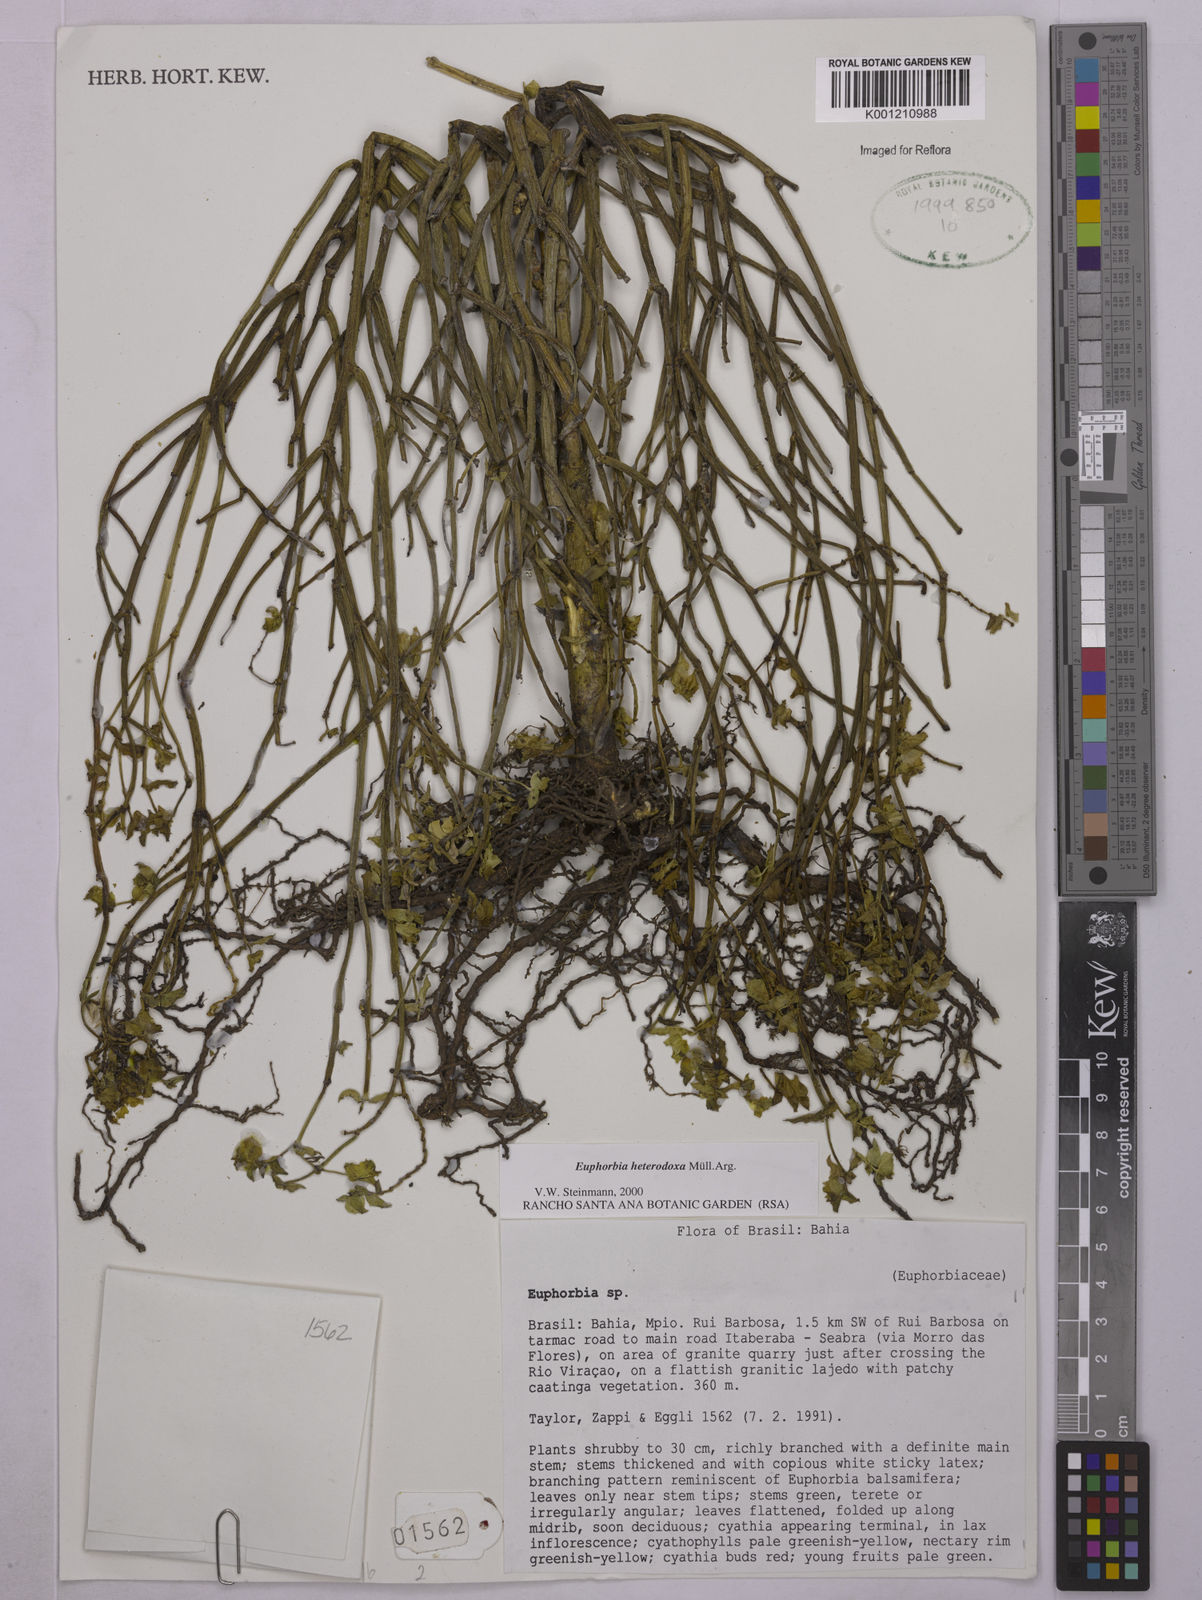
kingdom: Plantae
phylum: Tracheophyta
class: Magnoliopsida
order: Malpighiales
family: Euphorbiaceae
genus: Euphorbia
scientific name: Euphorbia
